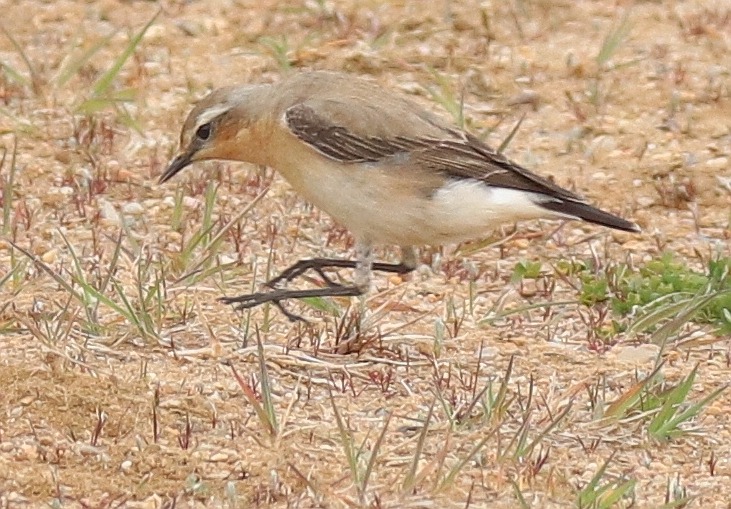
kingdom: Animalia
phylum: Chordata
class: Aves
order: Passeriformes
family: Muscicapidae
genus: Oenanthe
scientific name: Oenanthe oenanthe
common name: Stenpikker
